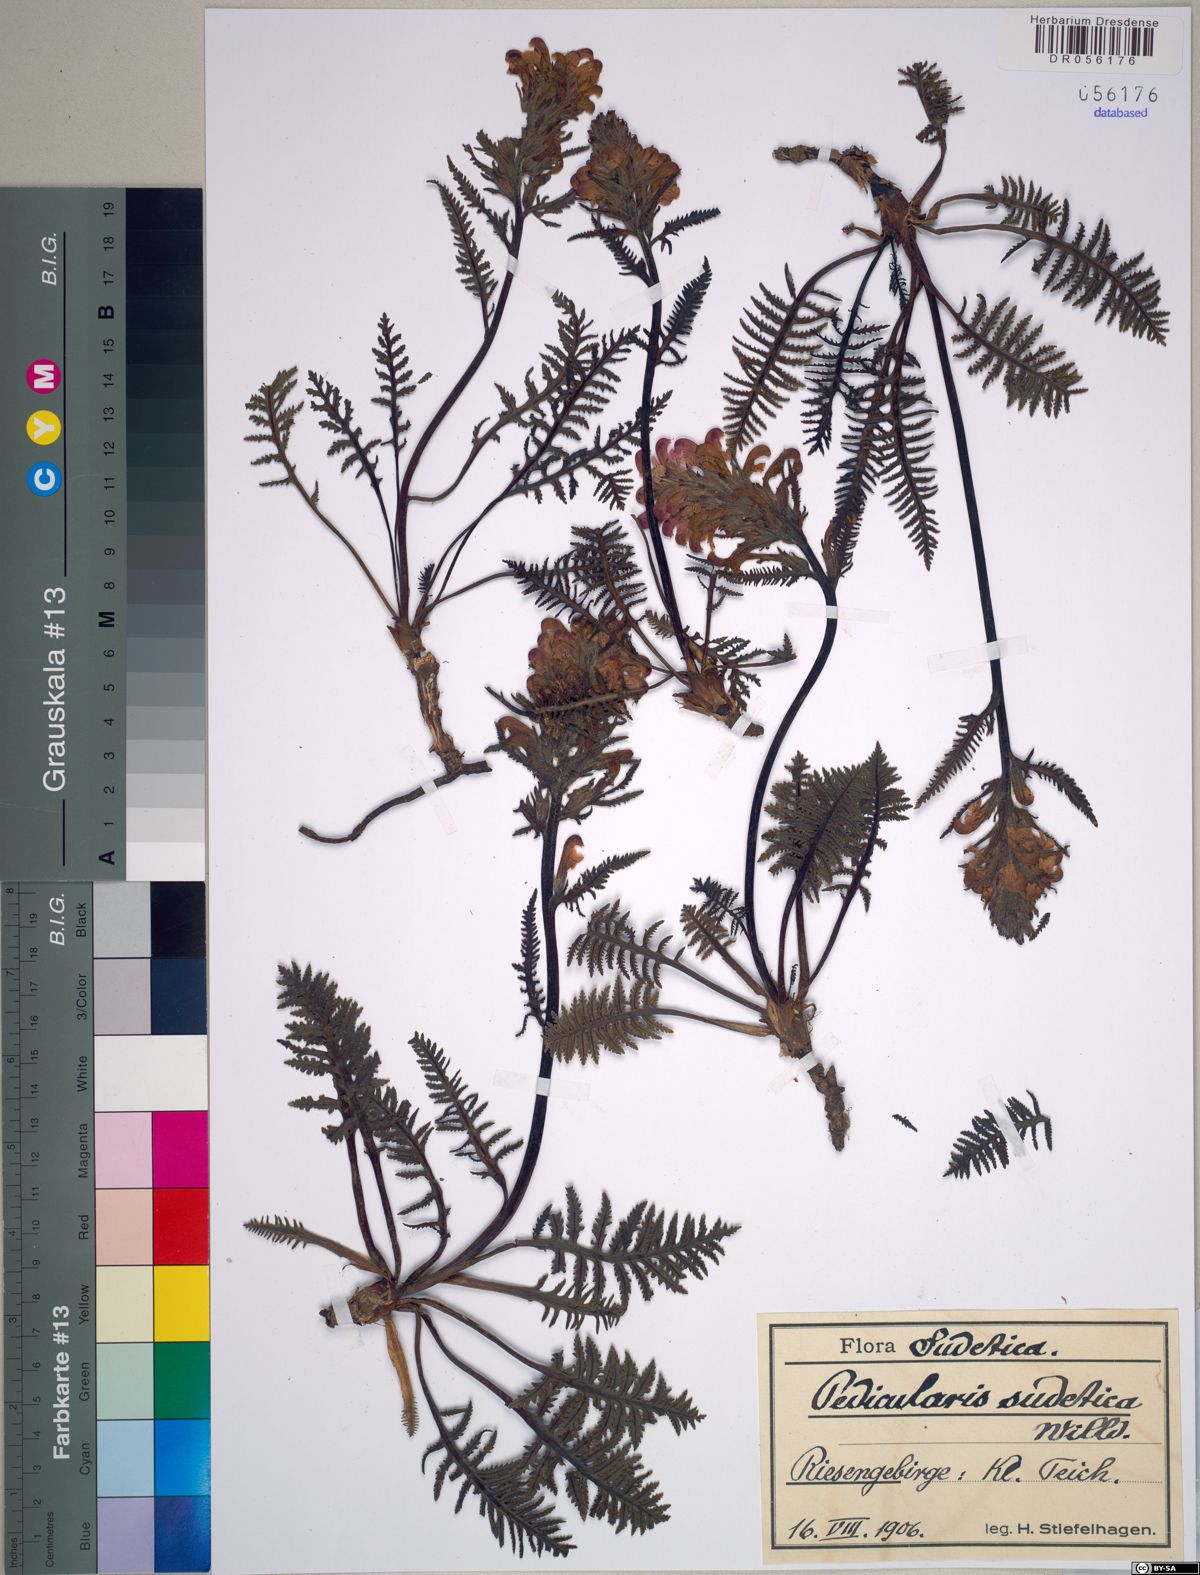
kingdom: Plantae
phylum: Tracheophyta
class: Magnoliopsida
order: Lamiales
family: Orobanchaceae
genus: Pedicularis
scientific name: Pedicularis sudetica
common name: Sudeten lousewort
